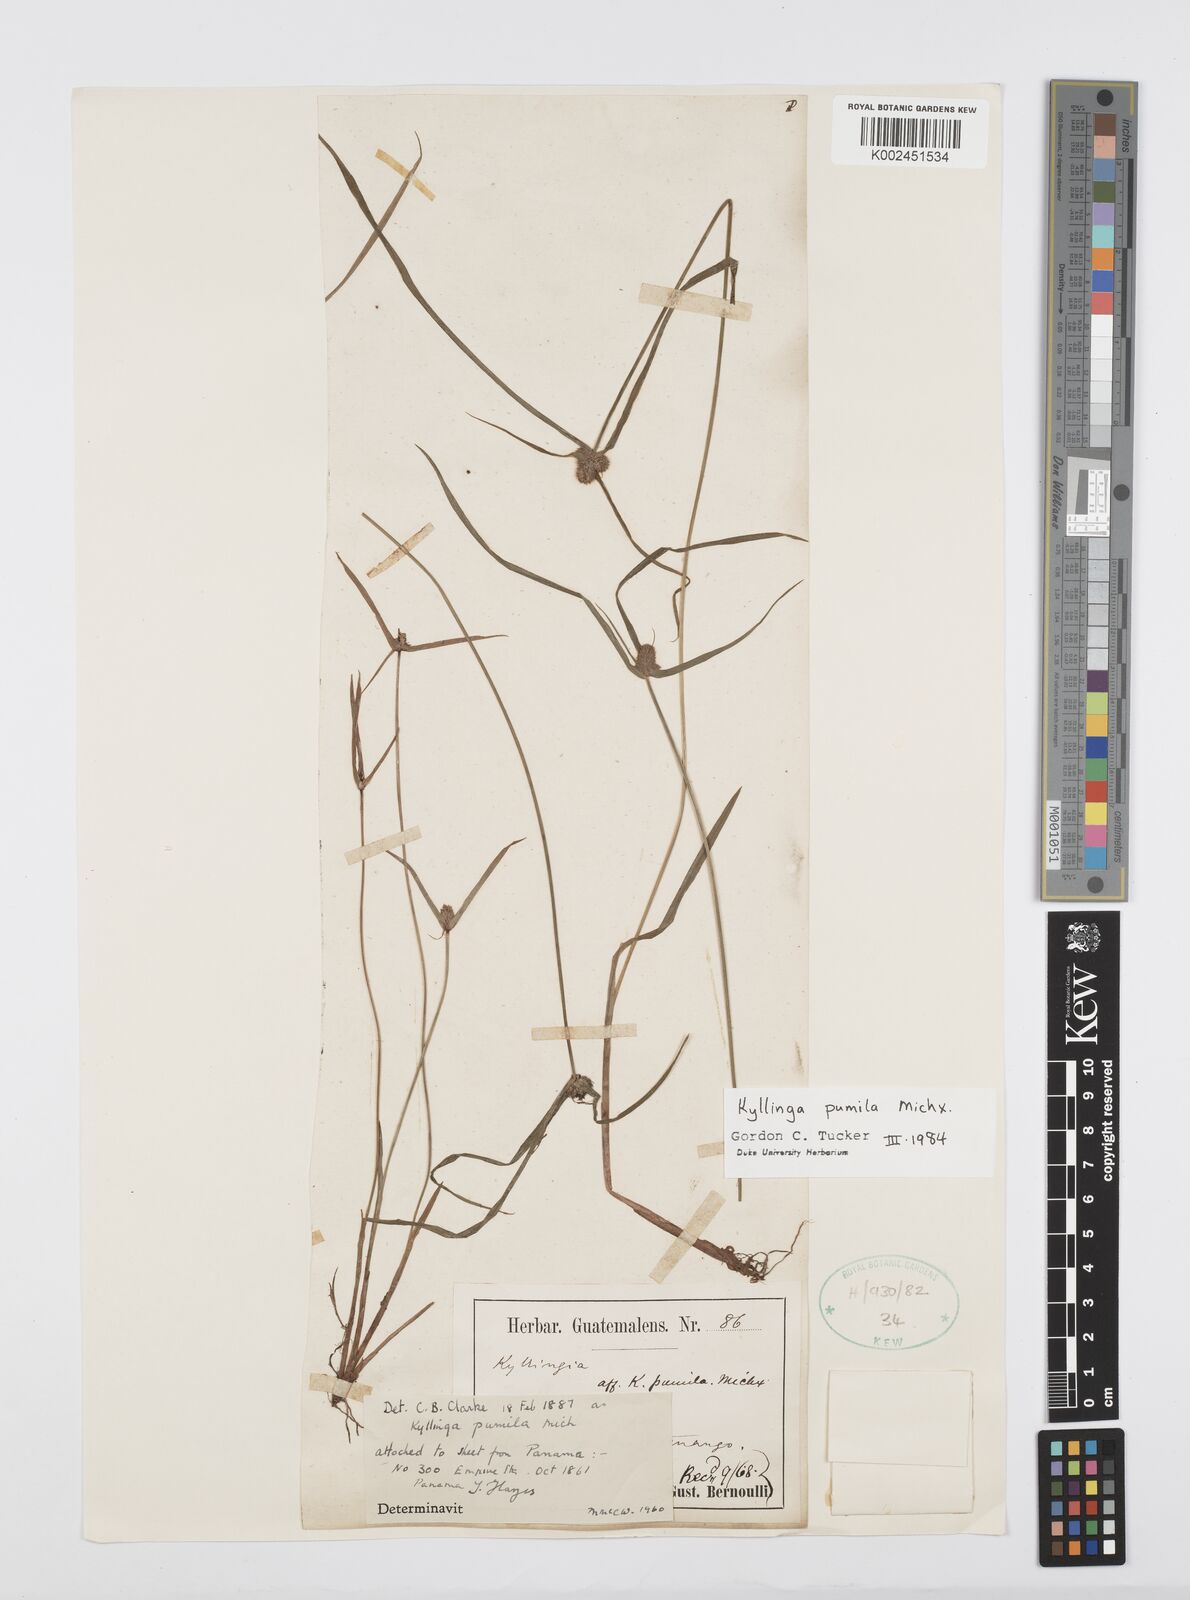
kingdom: Plantae
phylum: Tracheophyta
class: Liliopsida
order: Poales
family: Cyperaceae
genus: Cyperus
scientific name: Cyperus
